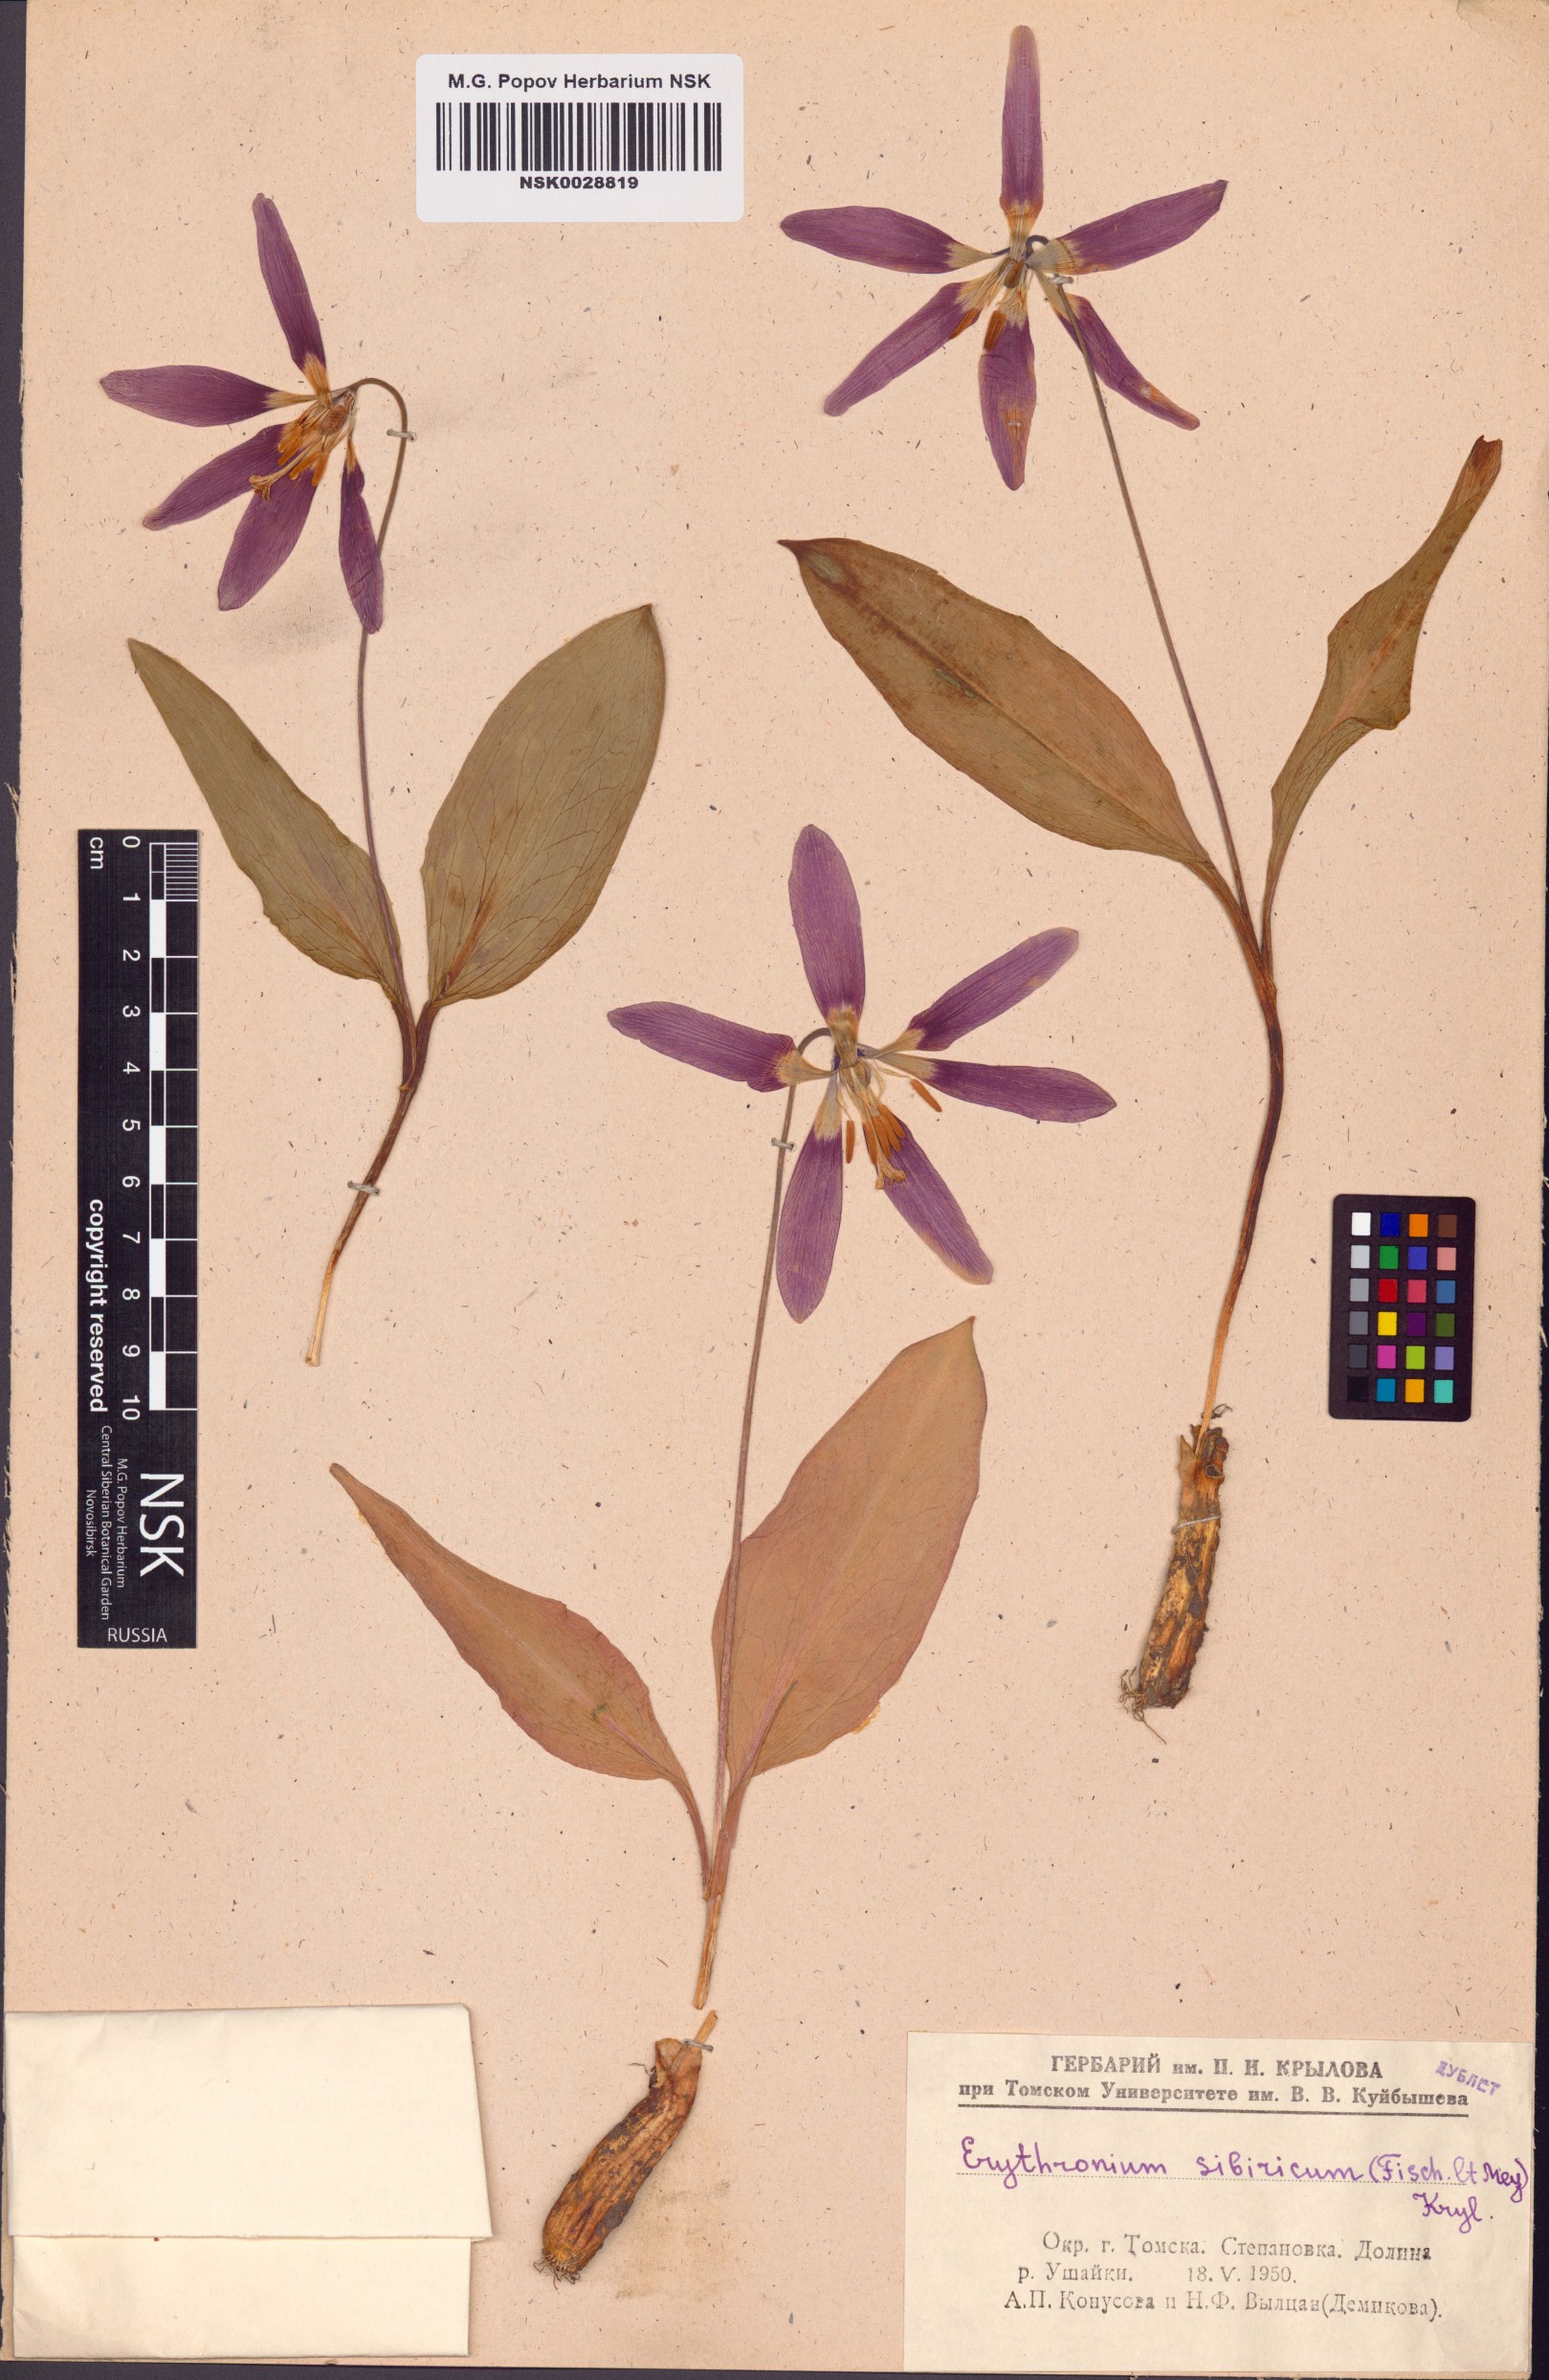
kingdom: Plantae
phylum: Tracheophyta
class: Liliopsida
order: Liliales
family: Liliaceae
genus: Erythronium
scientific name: Erythronium sibiricum
